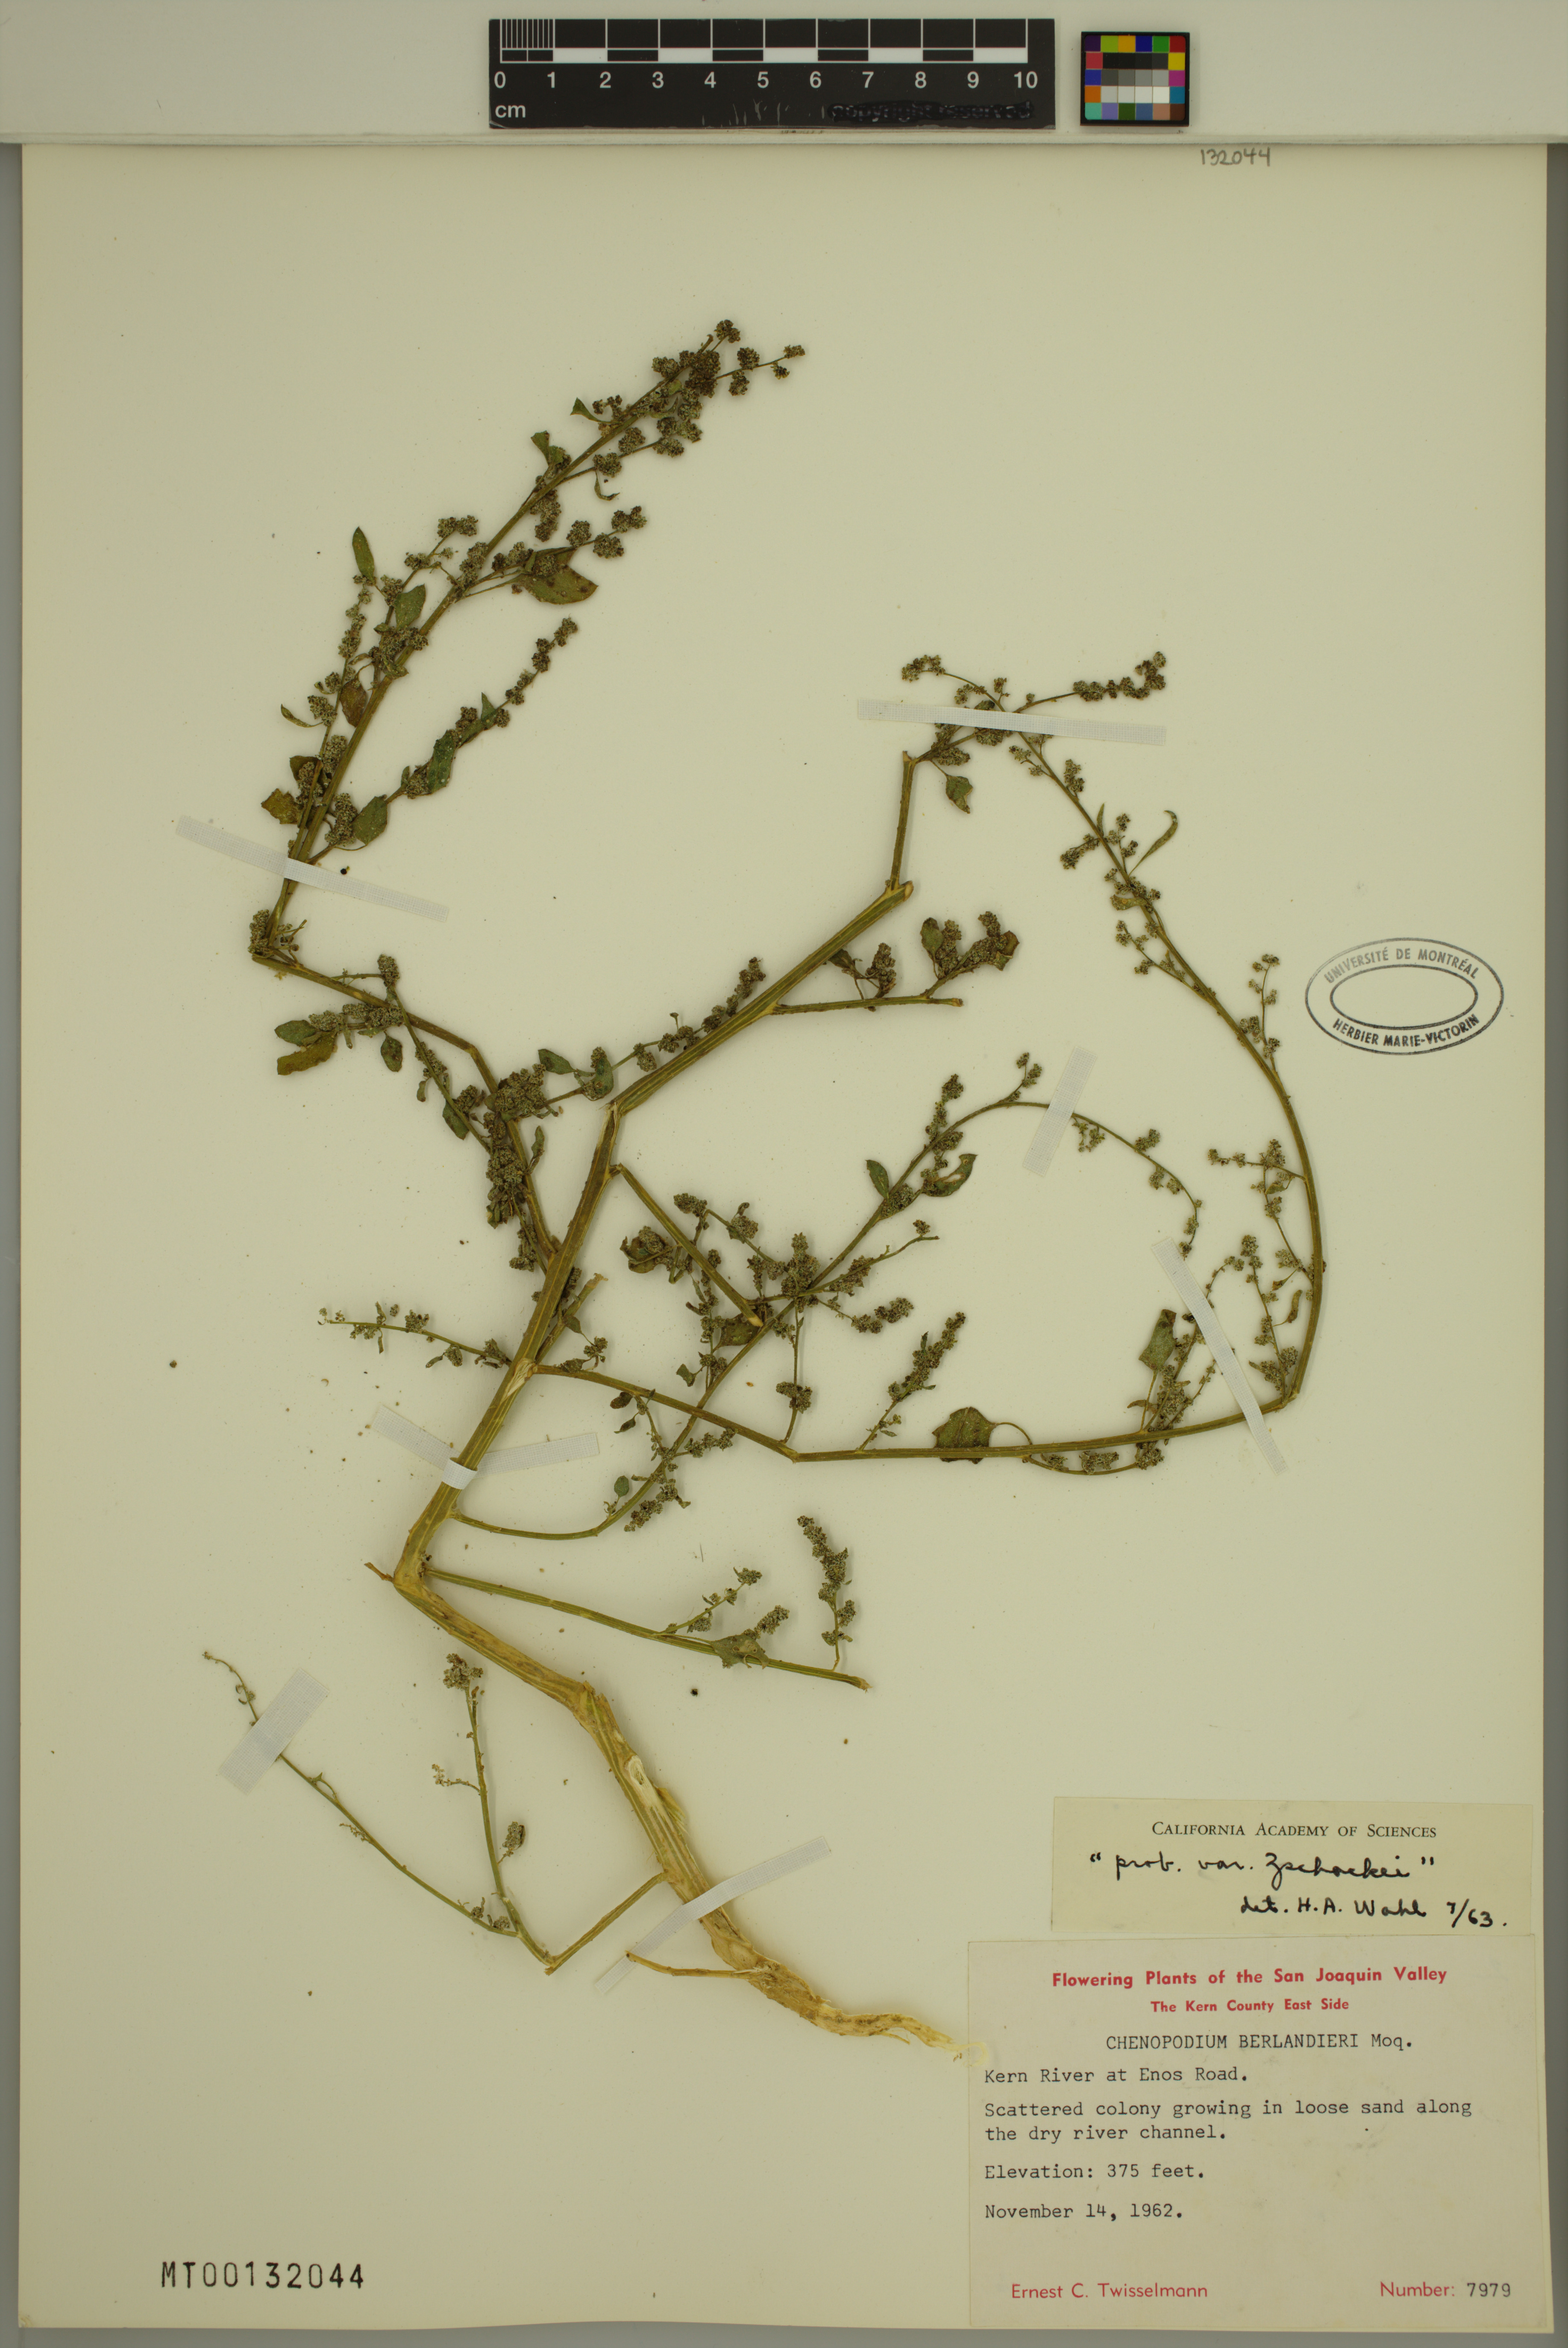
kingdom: Plantae
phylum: Tracheophyta
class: Magnoliopsida
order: Caryophyllales
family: Amaranthaceae
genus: Chenopodium
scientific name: Chenopodium berlandieri
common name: Pit-seed goosefoot
